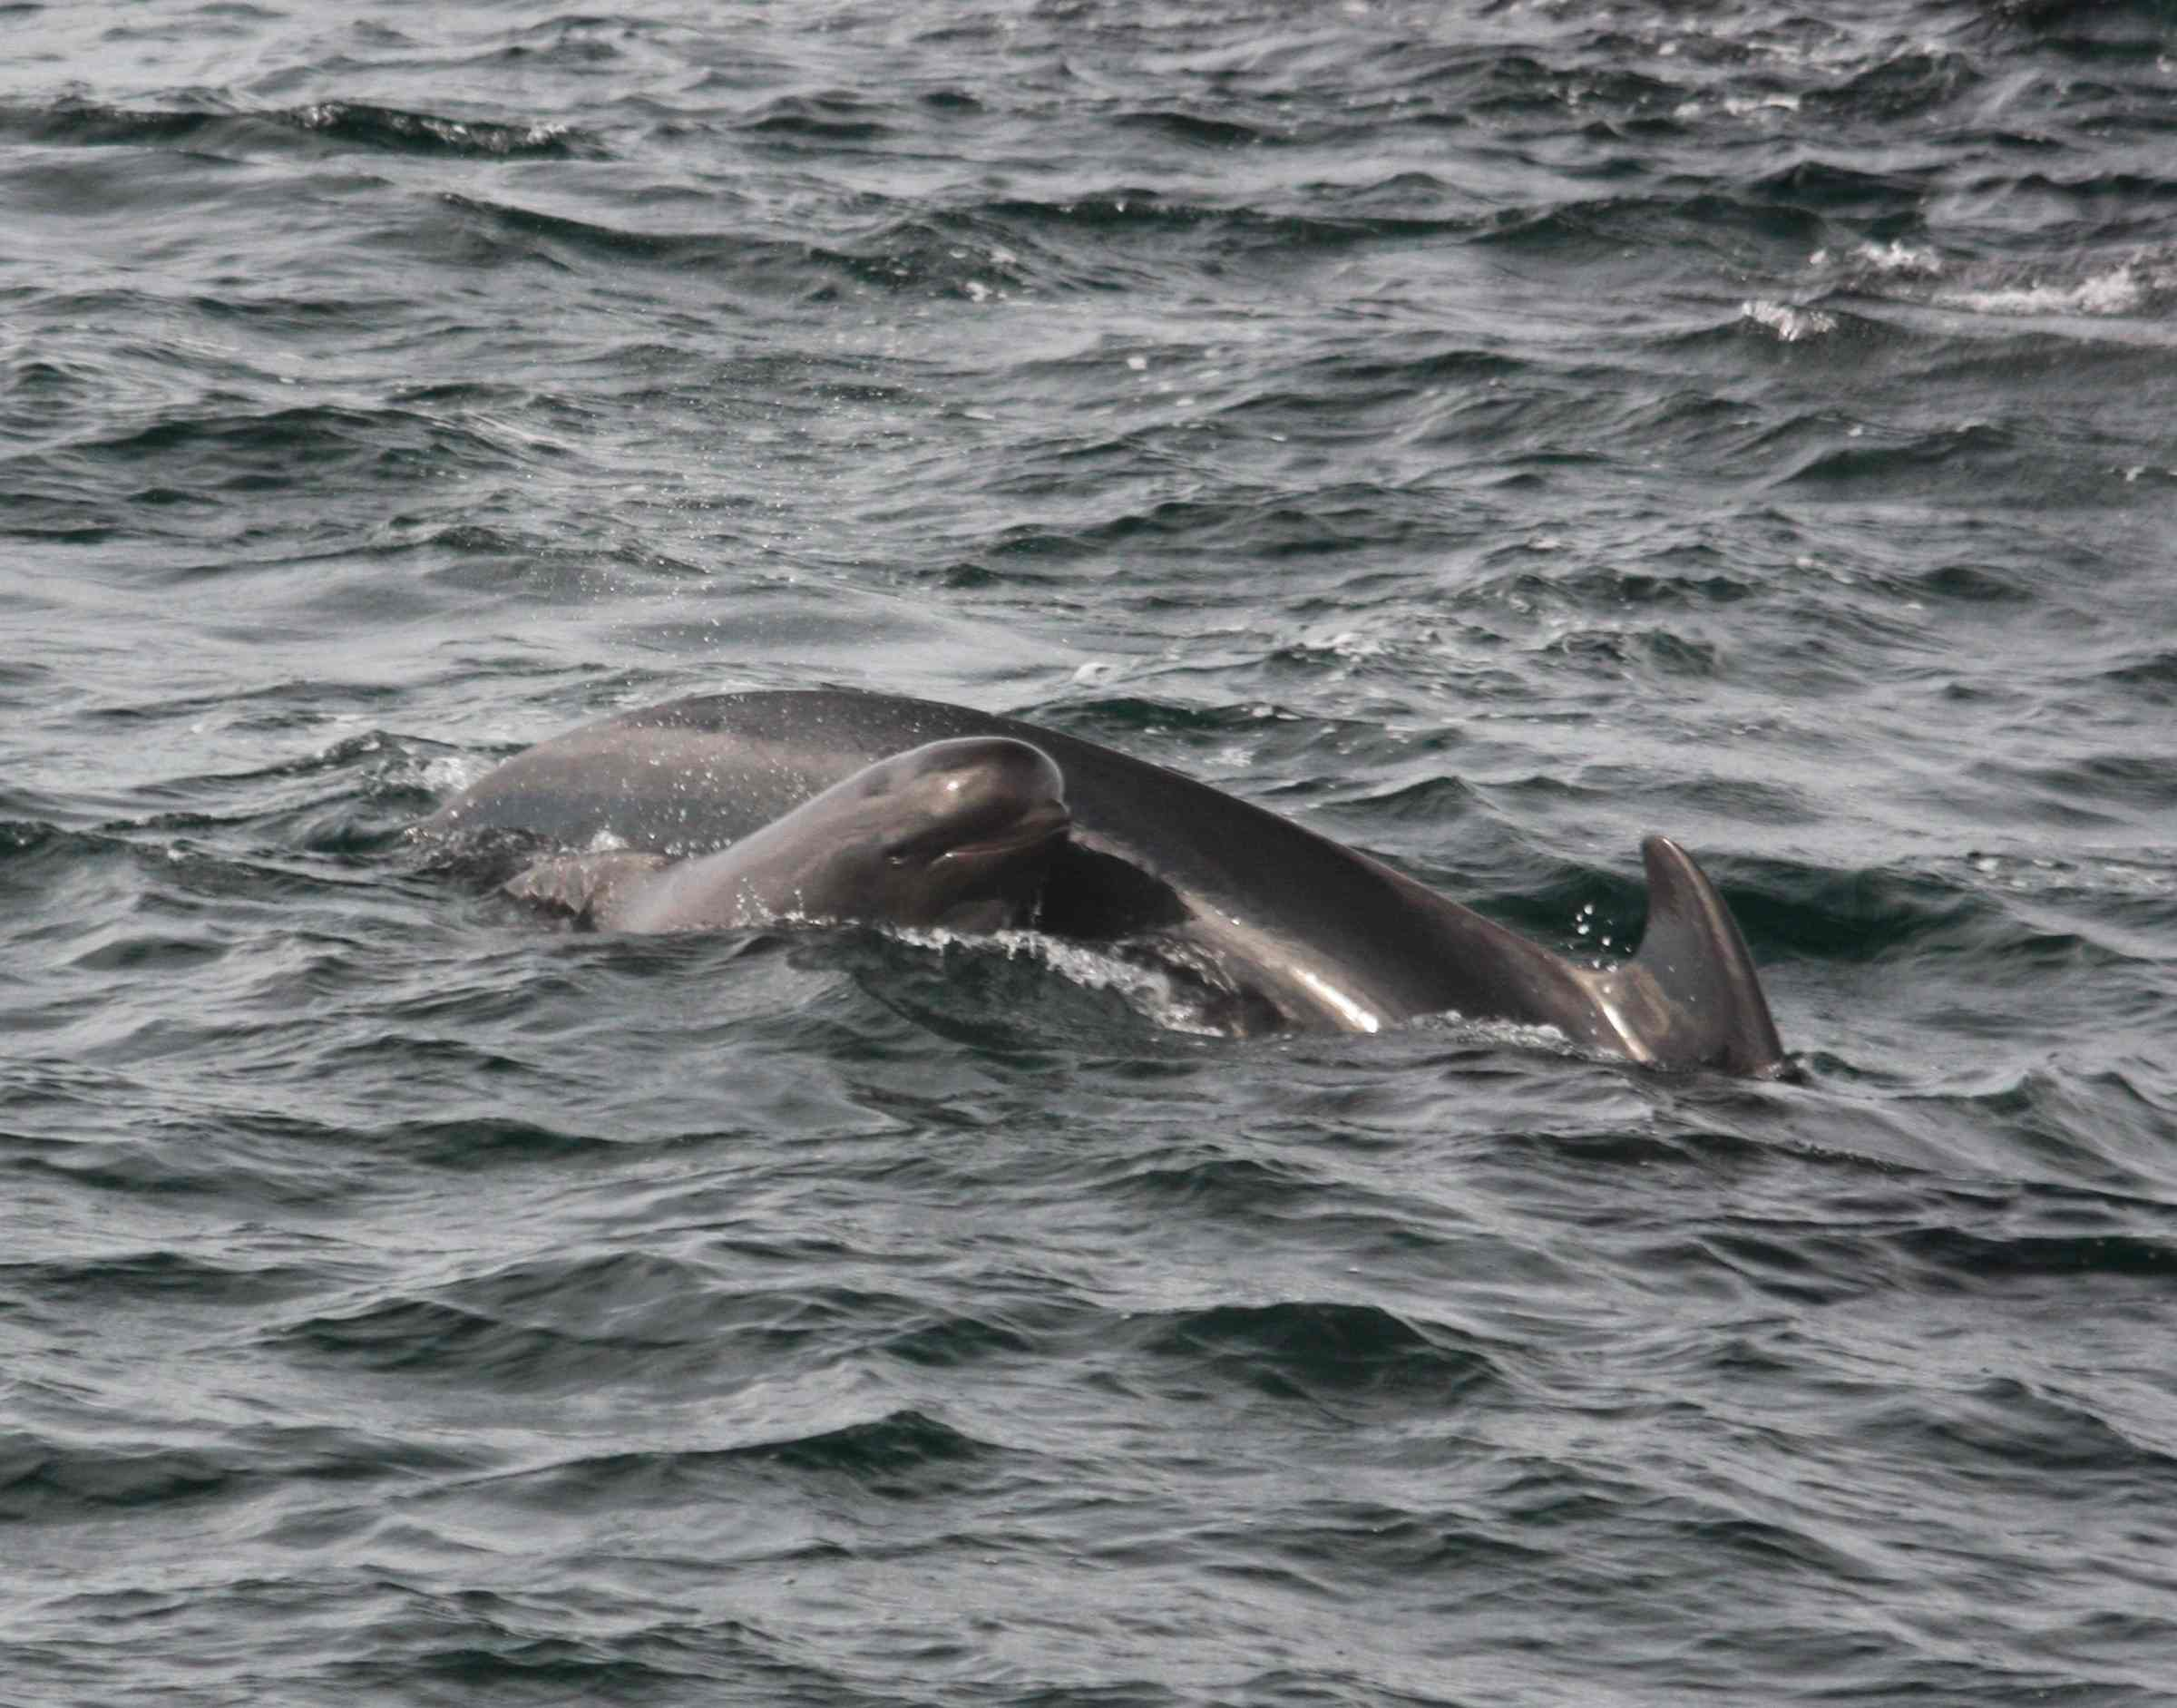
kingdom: Animalia
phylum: Chordata
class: Mammalia
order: Cetacea
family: Delphinidae
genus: Globicephala
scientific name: Globicephala melas
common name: Long-finned pilot whale
